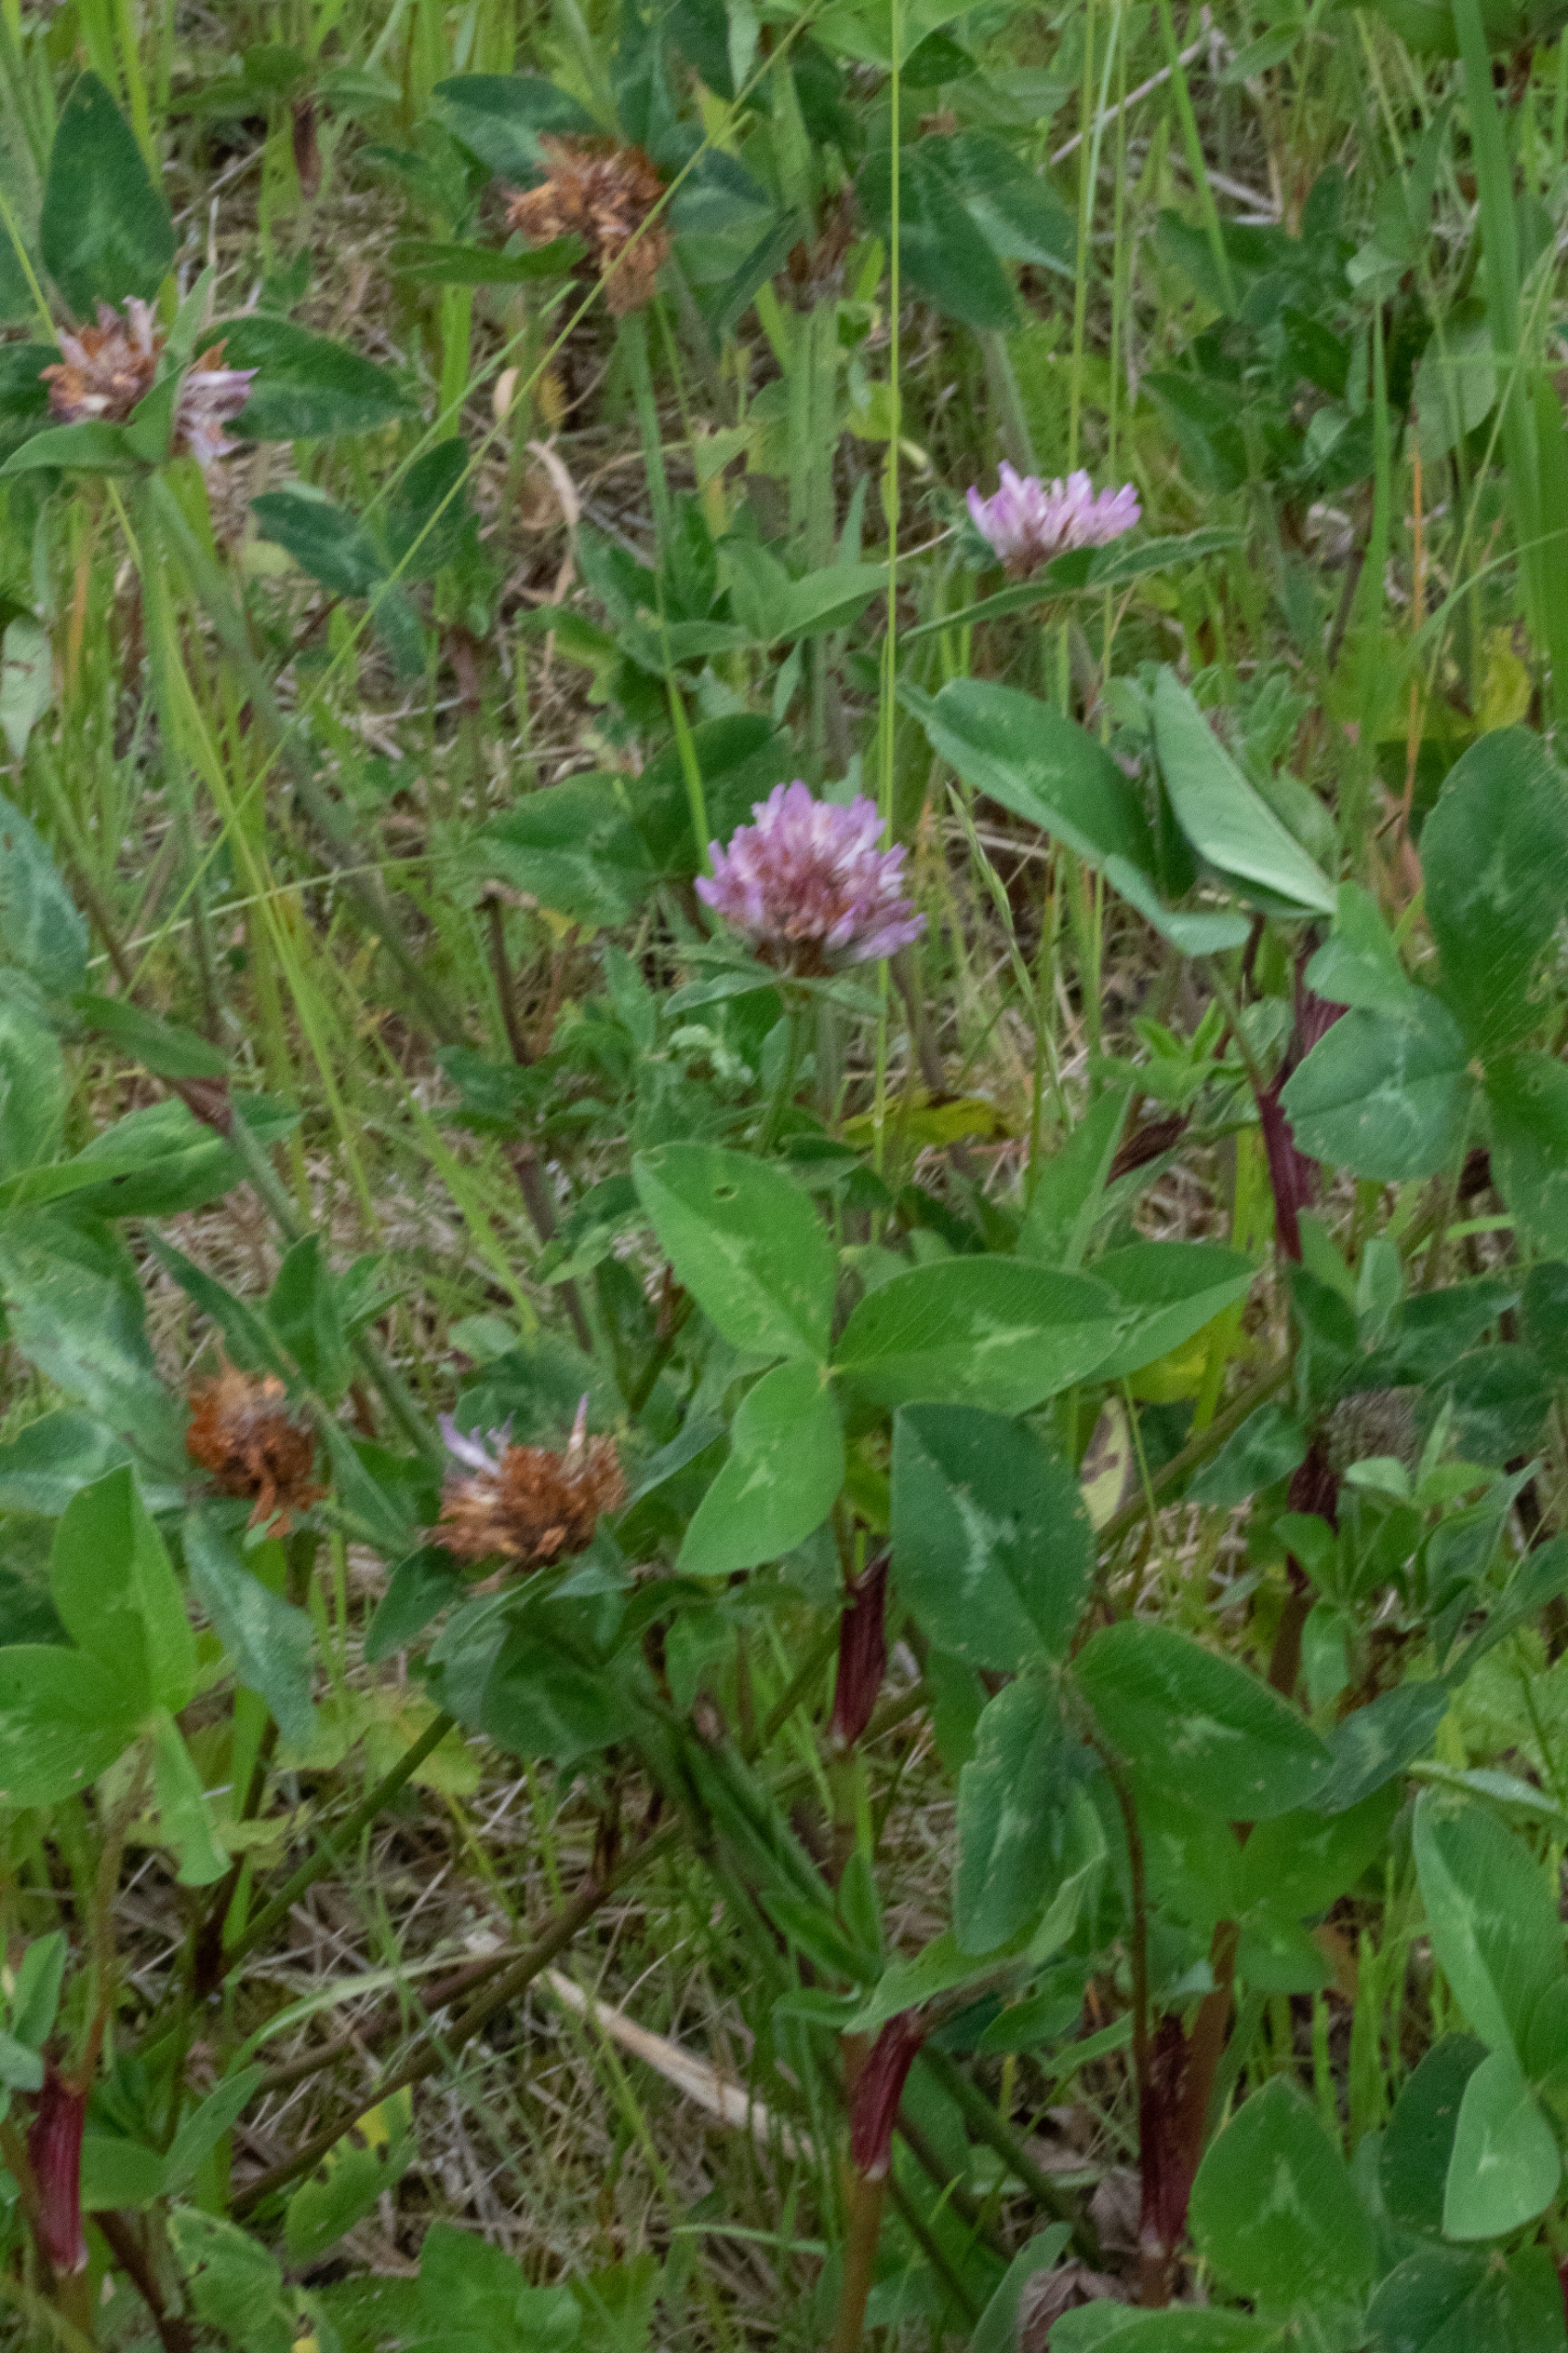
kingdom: Plantae
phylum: Tracheophyta
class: Magnoliopsida
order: Fabales
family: Fabaceae
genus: Trifolium
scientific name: Trifolium pratense
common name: Rød-kløver
